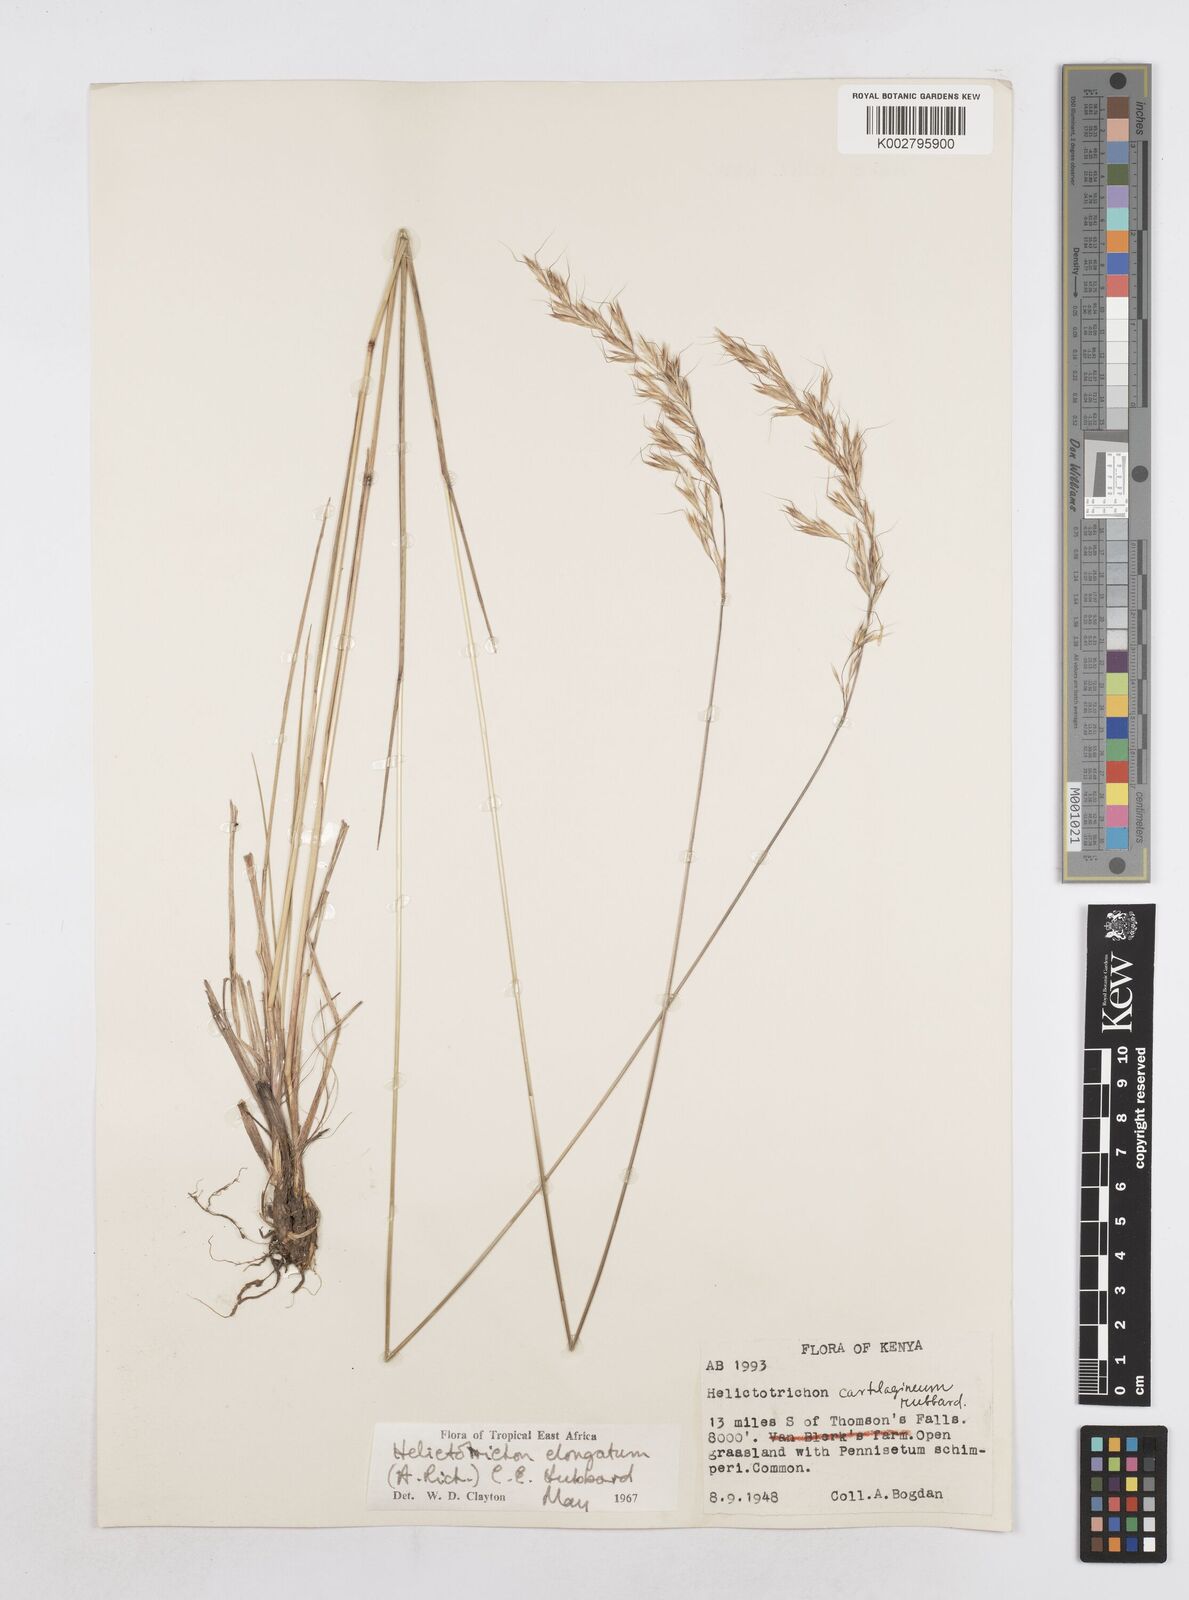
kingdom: Plantae
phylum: Tracheophyta
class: Liliopsida
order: Poales
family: Poaceae
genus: Trisetopsis
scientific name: Trisetopsis elongata
